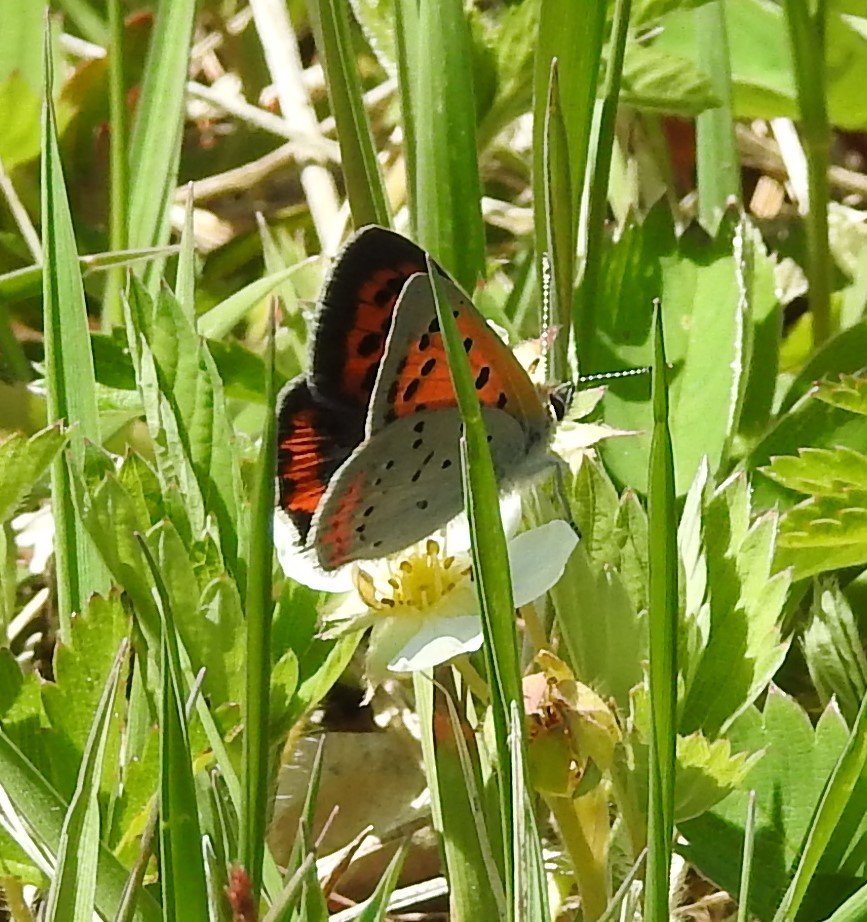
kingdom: Animalia
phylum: Arthropoda
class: Insecta
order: Lepidoptera
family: Lycaenidae
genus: Lycaena
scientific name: Lycaena phlaeas
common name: American Copper
